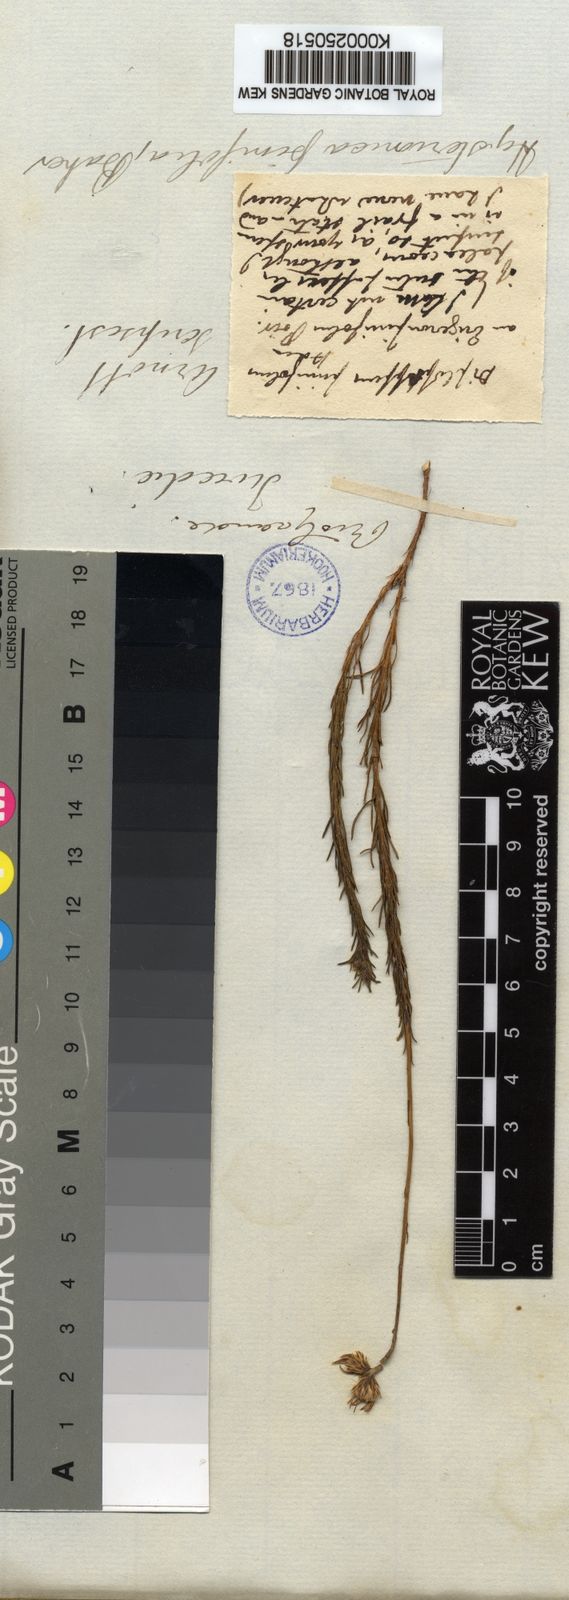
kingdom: Plantae
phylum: Tracheophyta
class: Magnoliopsida
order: Asterales
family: Asteraceae
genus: Neja
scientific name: Neja pinifolia
